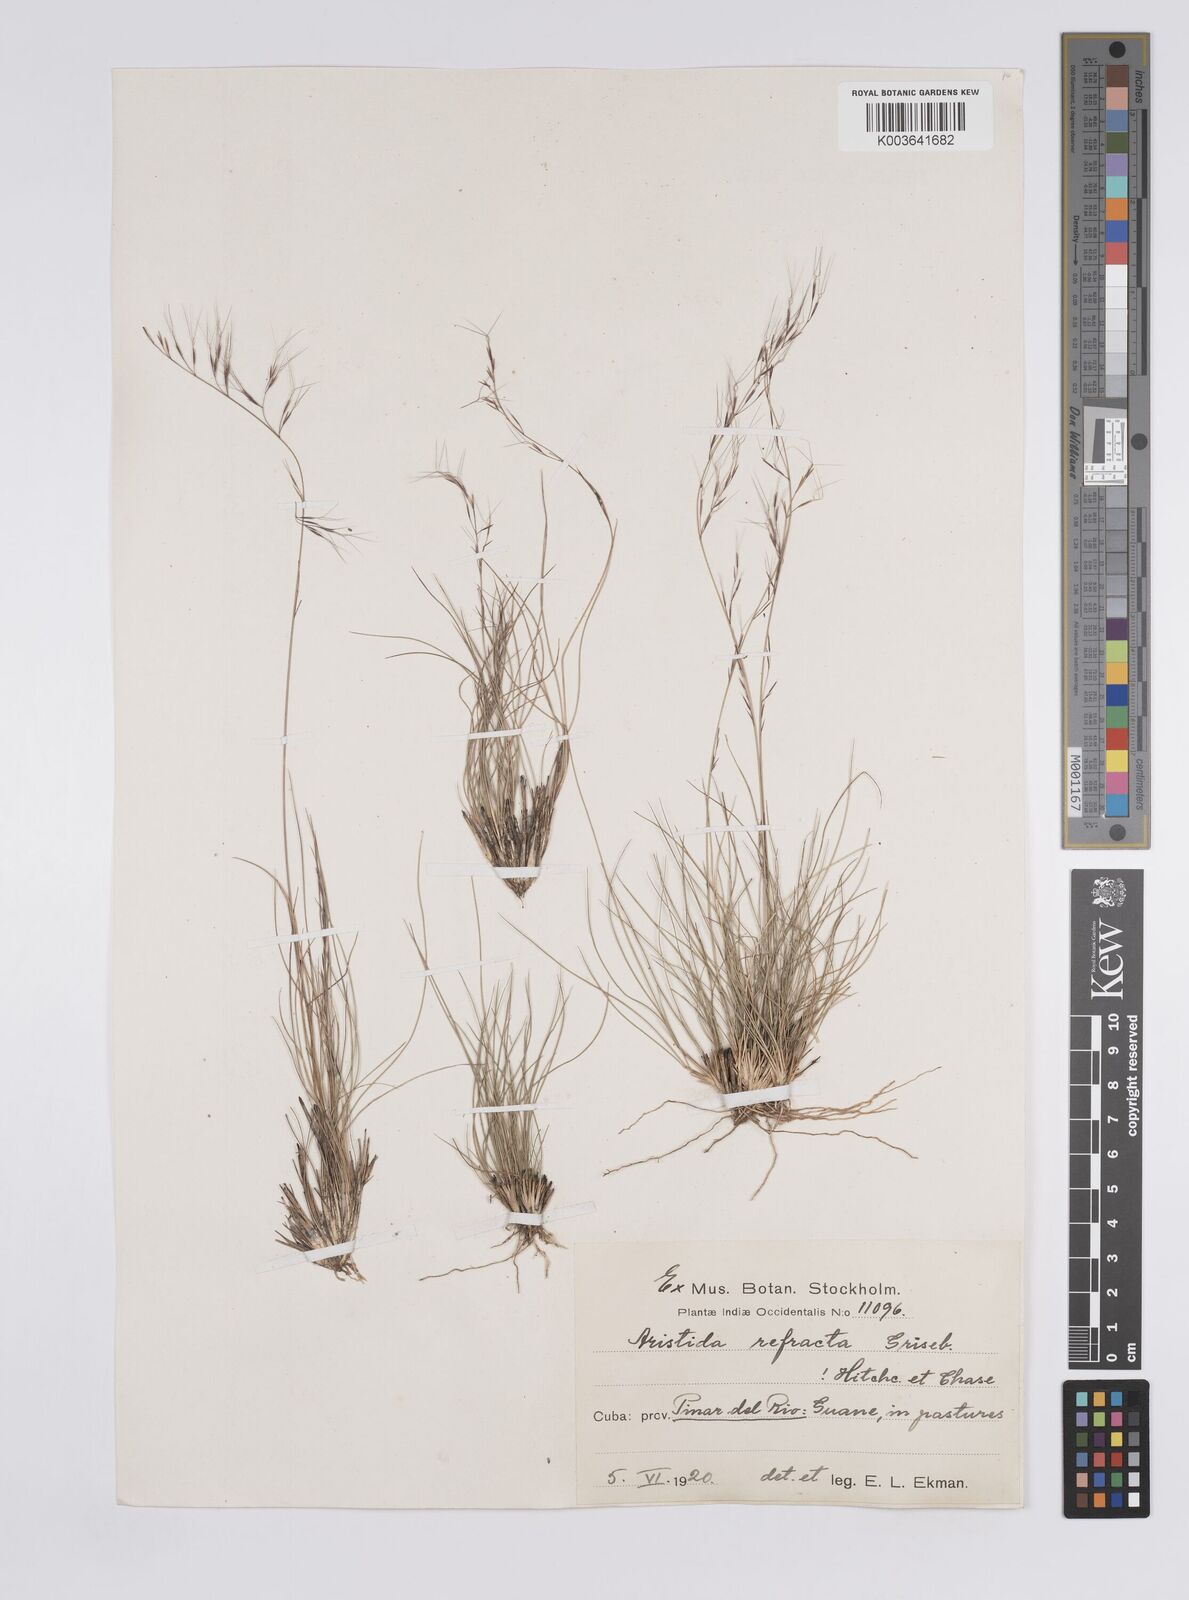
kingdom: Plantae
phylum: Tracheophyta
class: Liliopsida
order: Poales
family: Poaceae
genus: Aristida
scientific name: Aristida refracta
